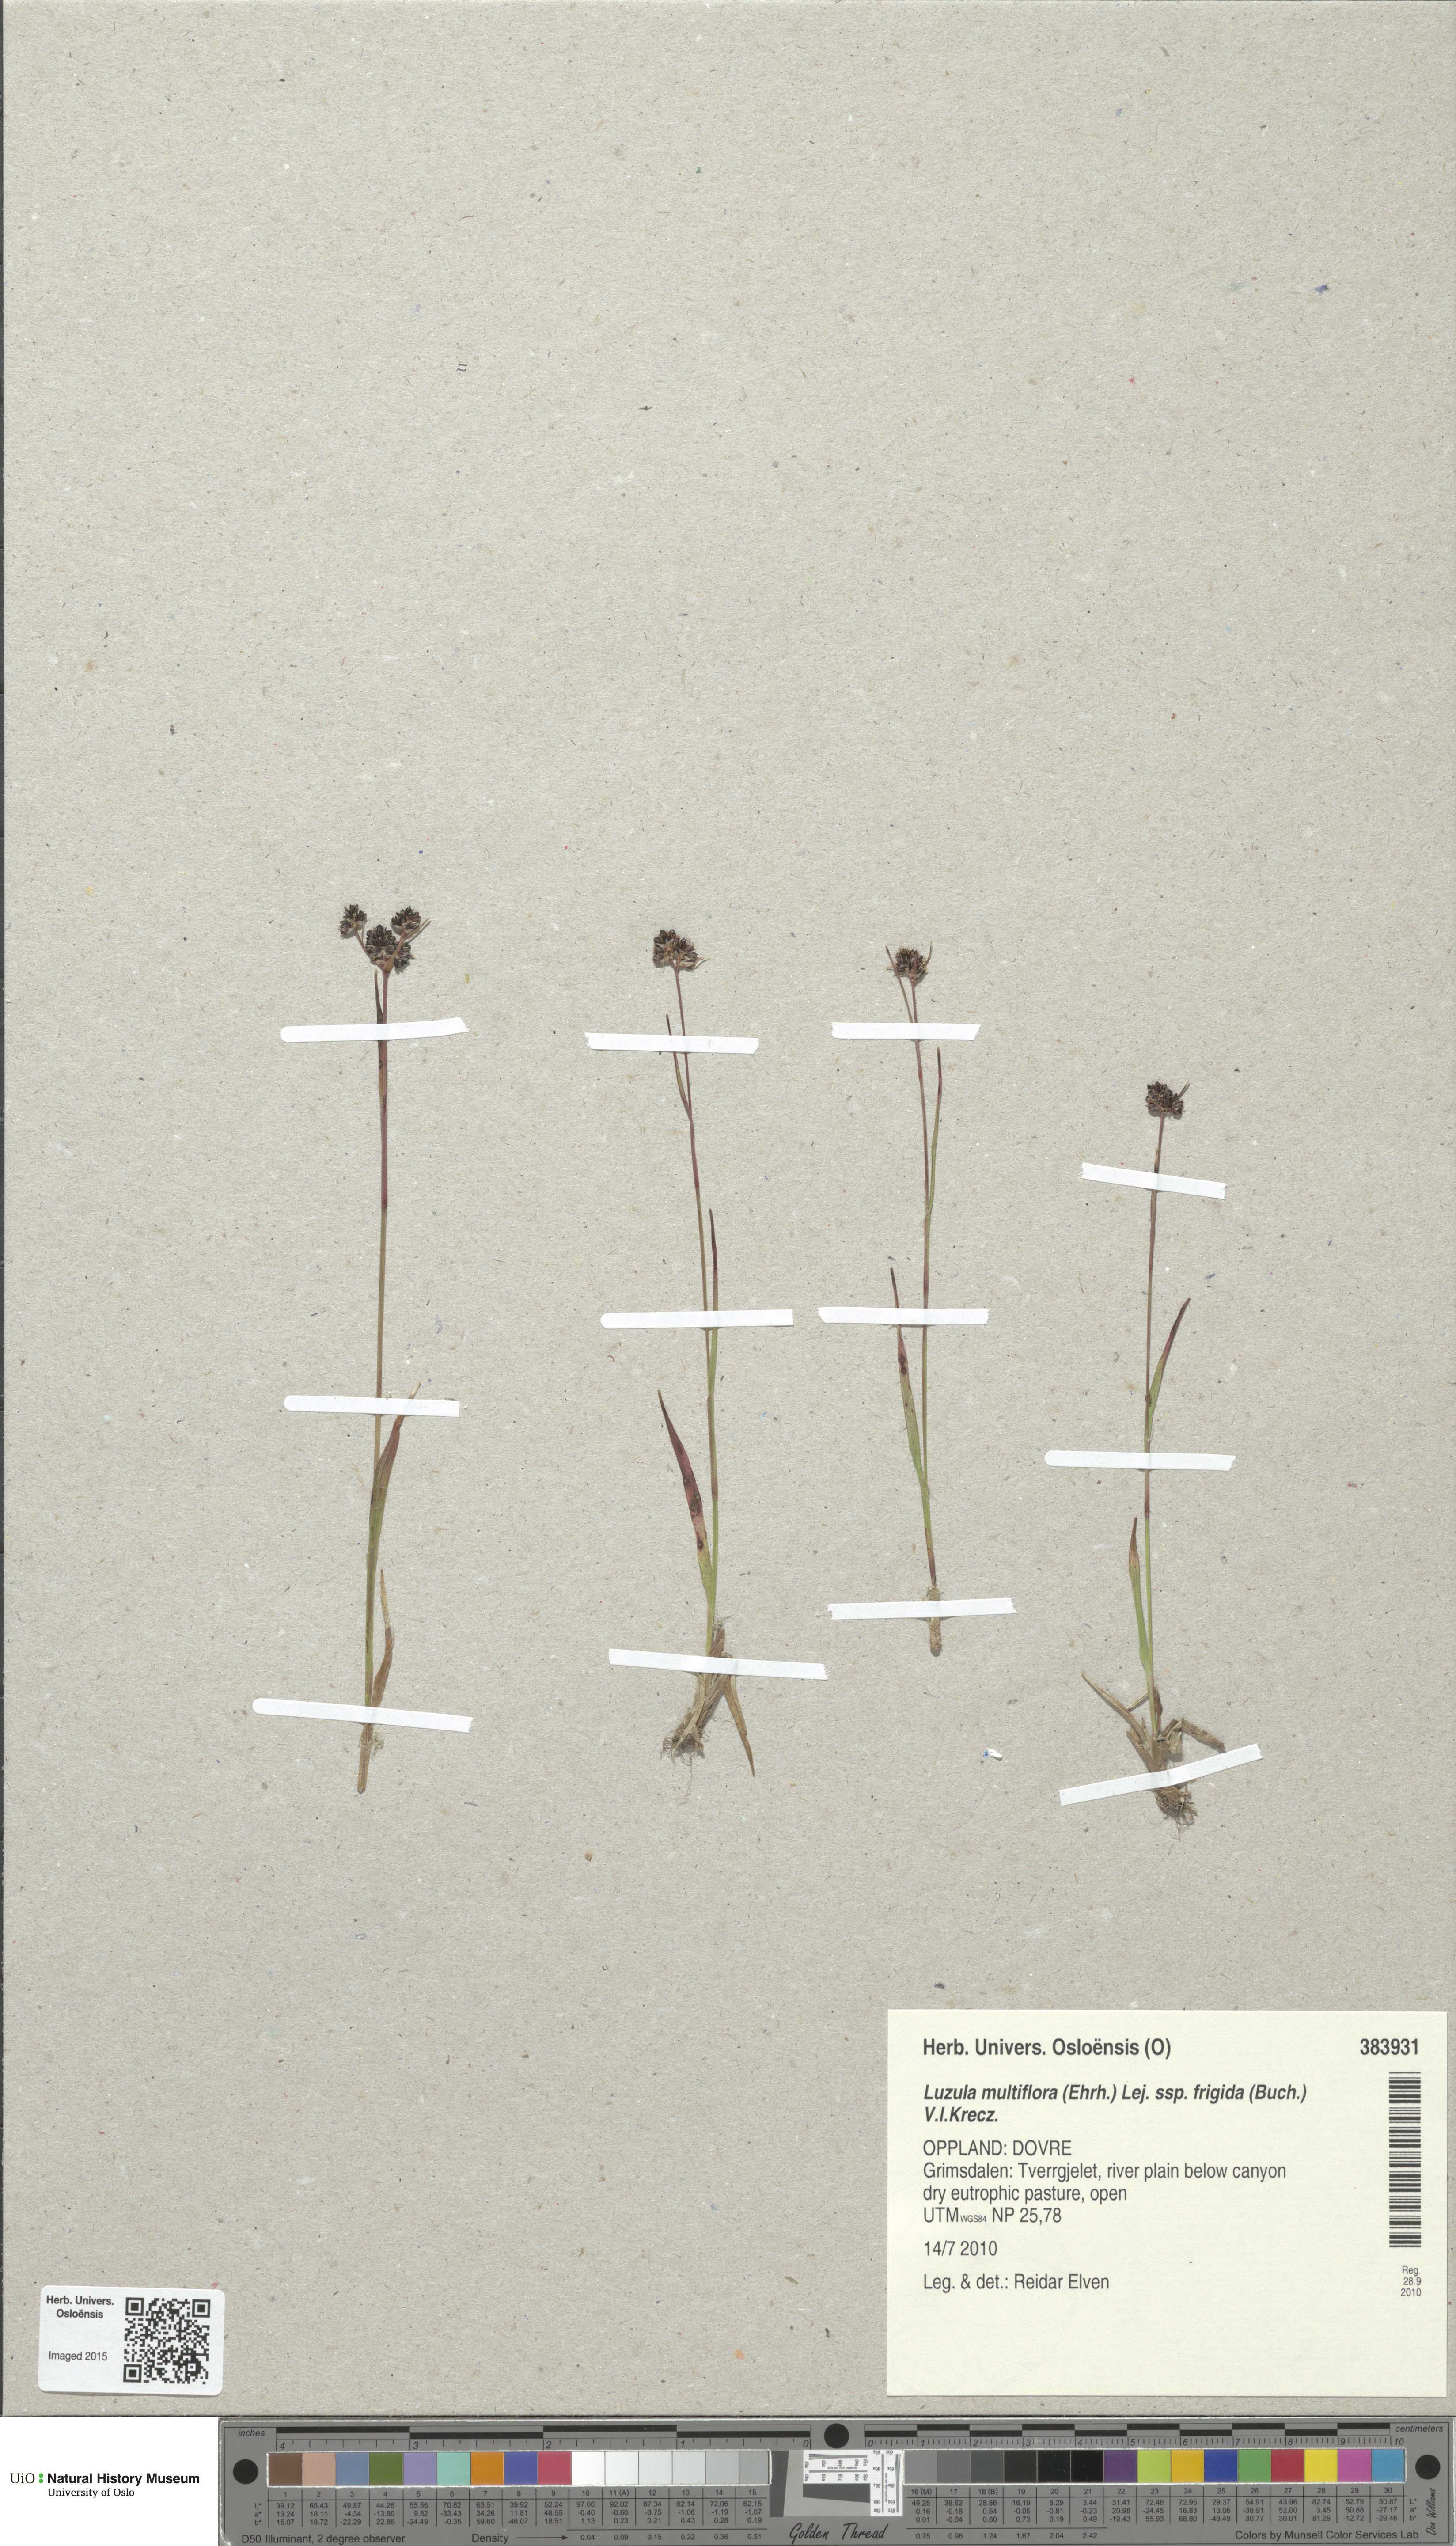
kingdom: Plantae
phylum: Tracheophyta
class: Liliopsida
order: Poales
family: Juncaceae
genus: Luzula
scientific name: Luzula multiflora
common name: Heath wood-rush
